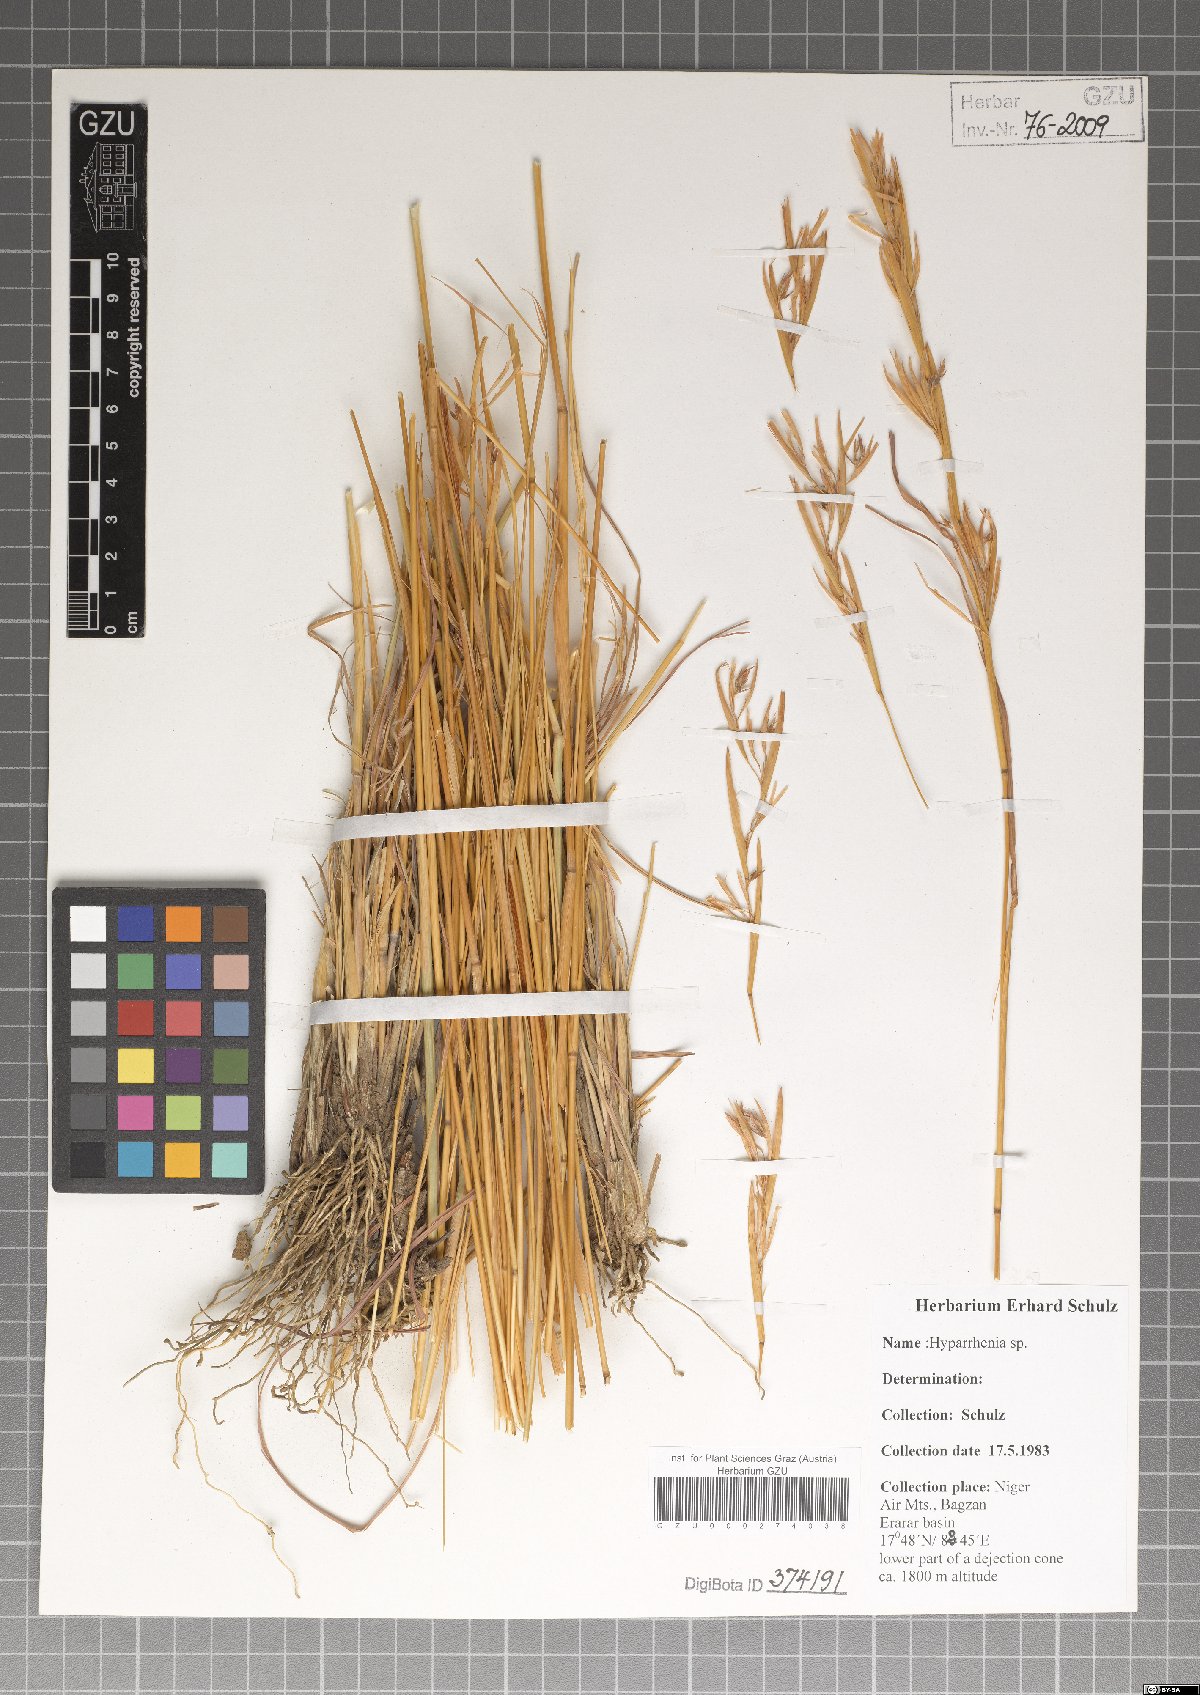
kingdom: Plantae
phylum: Tracheophyta
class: Liliopsida
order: Poales
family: Poaceae
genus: Hyparrhenia
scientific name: Hyparrhenia
